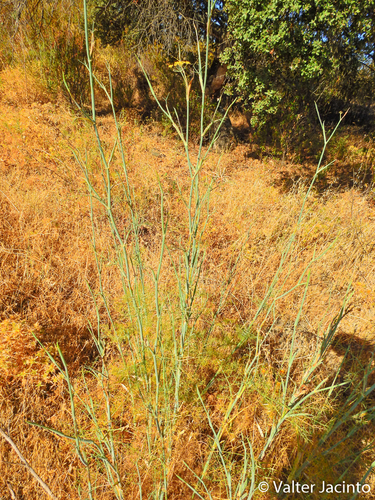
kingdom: Plantae
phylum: Tracheophyta
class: Magnoliopsida
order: Apiales
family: Apiaceae
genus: Foeniculum
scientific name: Foeniculum vulgare
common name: Fennel
